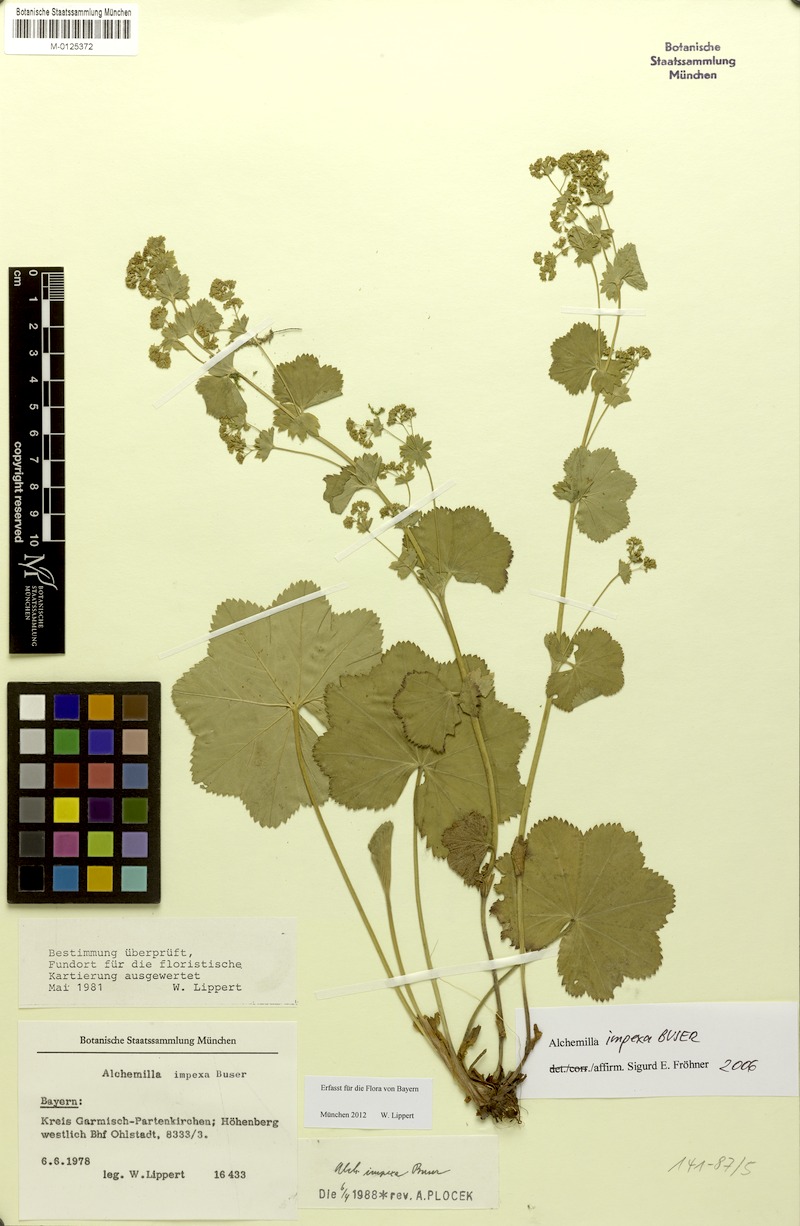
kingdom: Plantae
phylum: Tracheophyta
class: Magnoliopsida
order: Rosales
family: Rosaceae
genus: Alchemilla
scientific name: Alchemilla impexa
